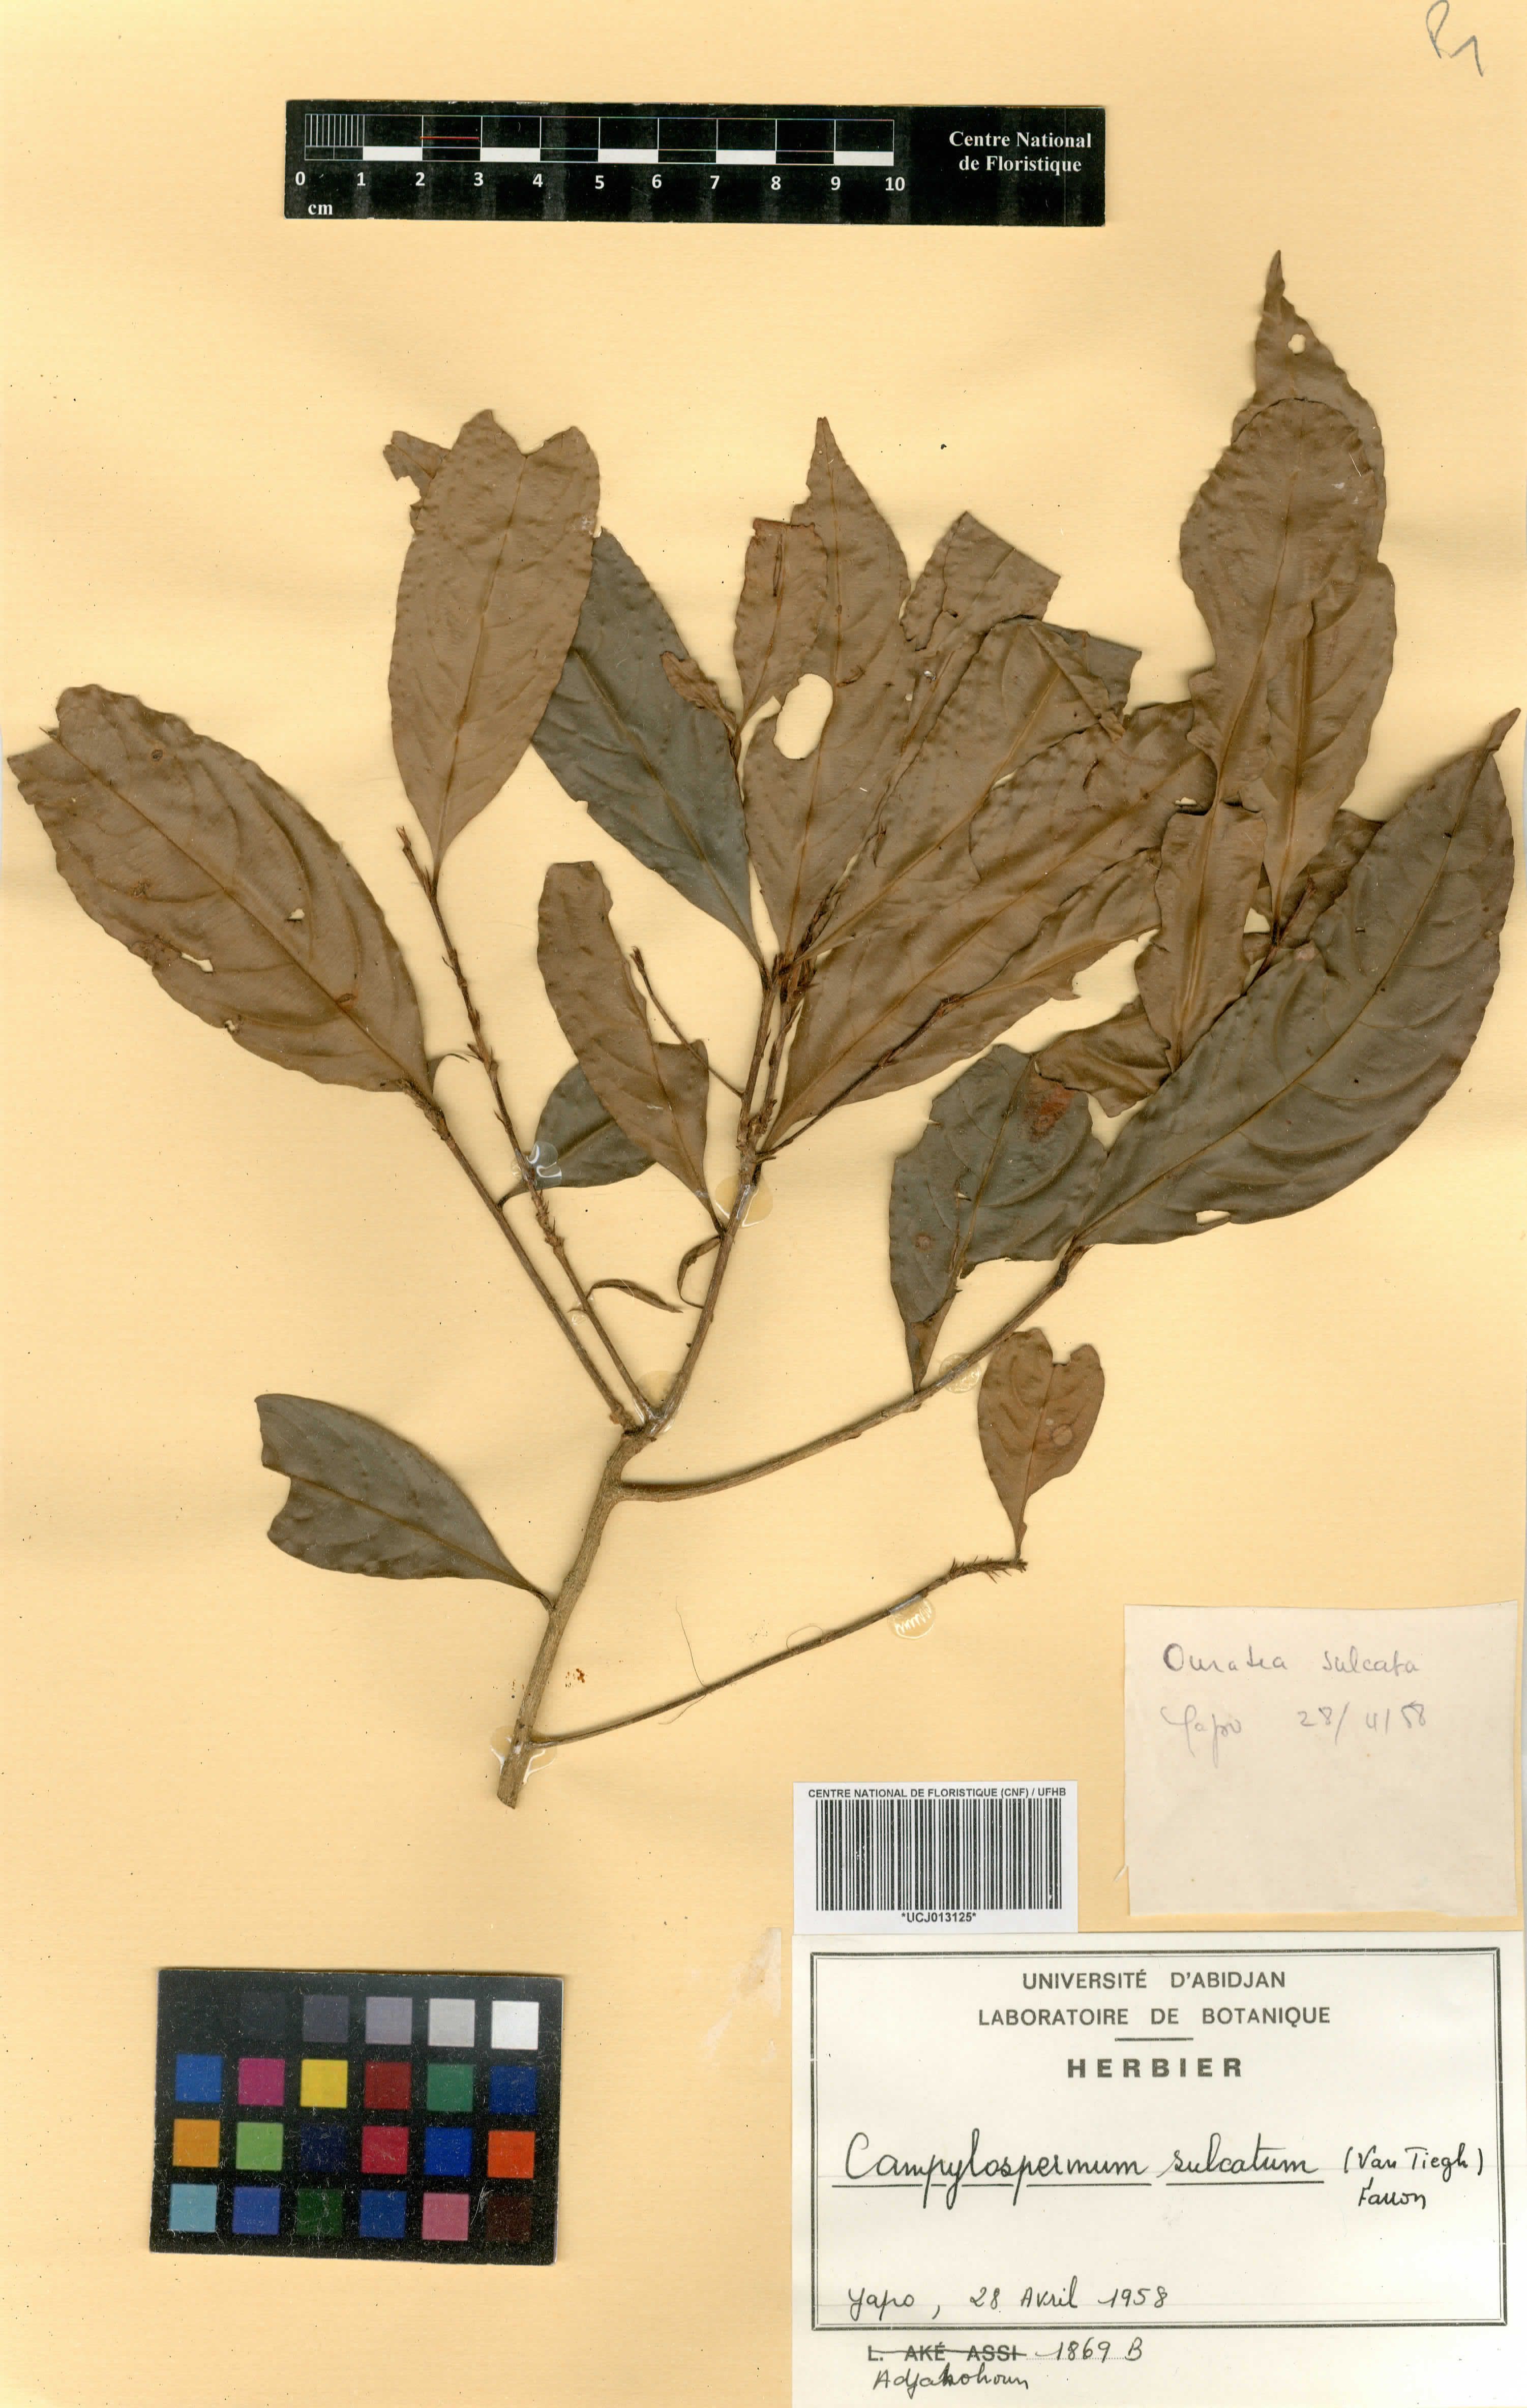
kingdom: Plantae
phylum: Tracheophyta
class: Magnoliopsida
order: Malpighiales
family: Ochnaceae
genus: Campylospermum
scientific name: Campylospermum sulcatum
